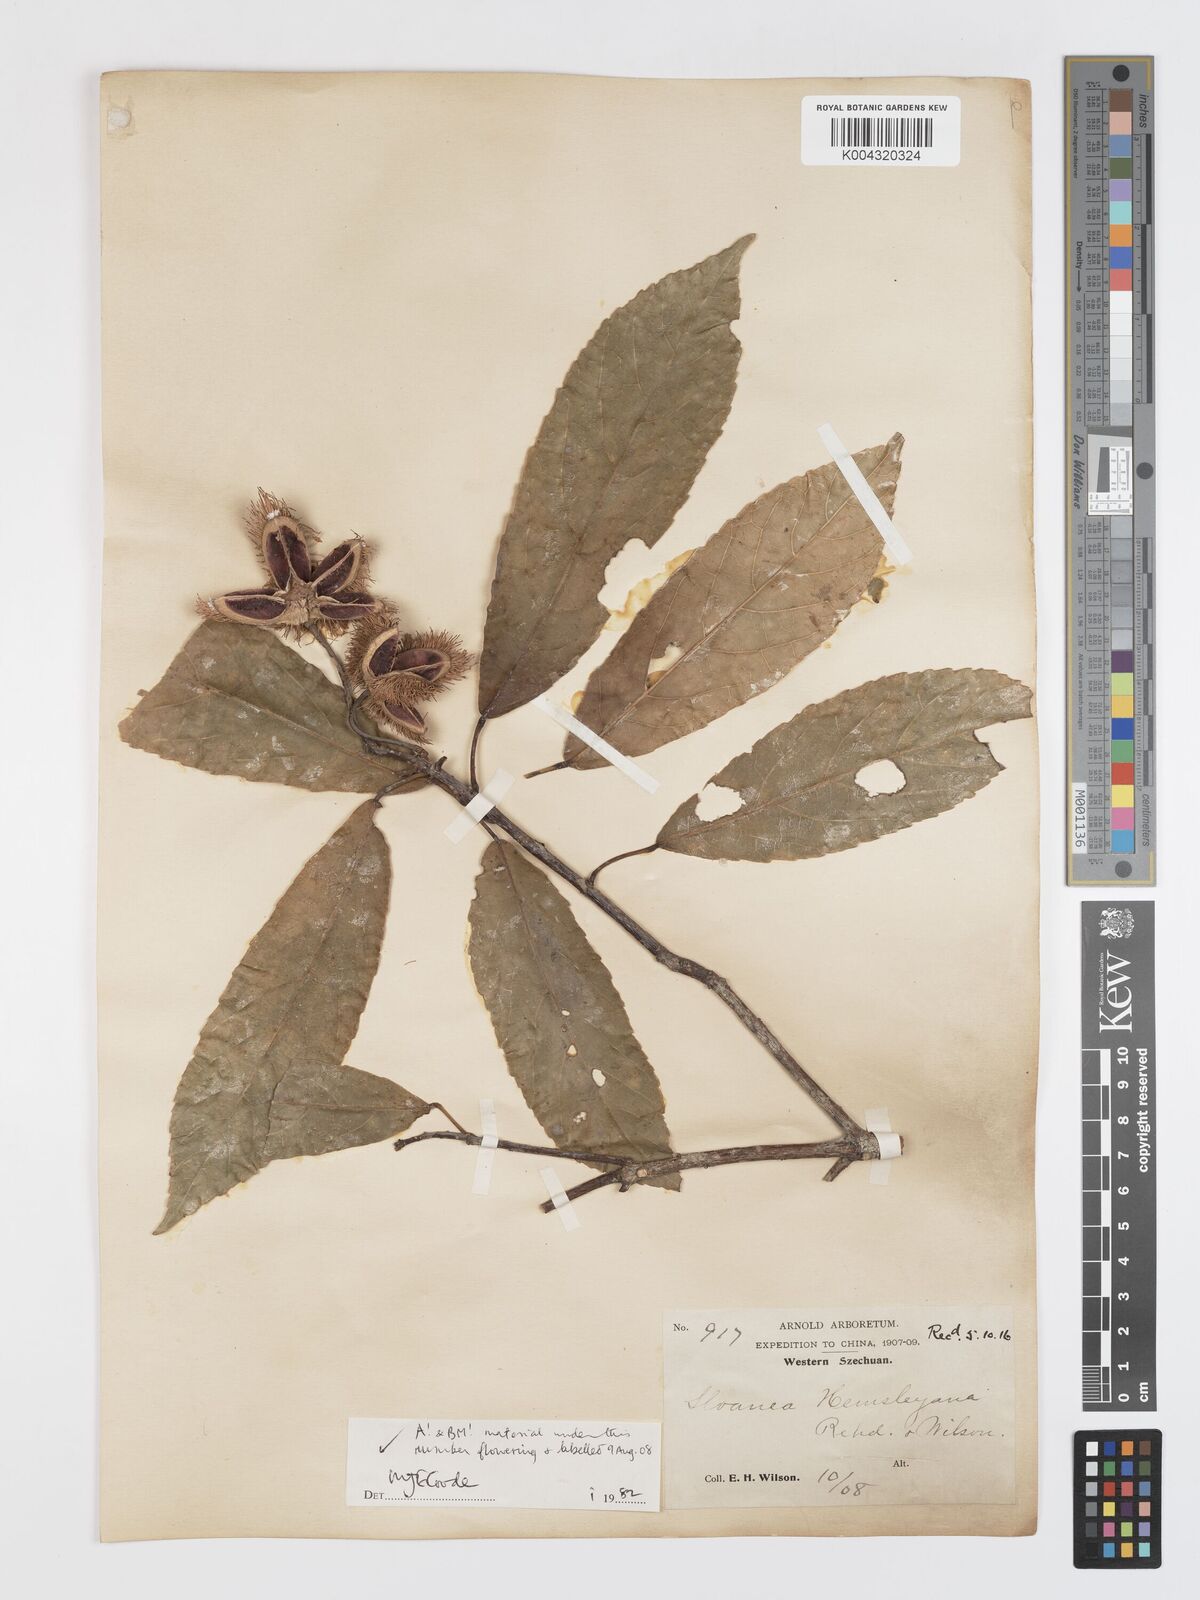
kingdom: Plantae
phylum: Tracheophyta
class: Magnoliopsida
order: Oxalidales
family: Elaeocarpaceae
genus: Sloanea
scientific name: Sloanea hemsleyana
